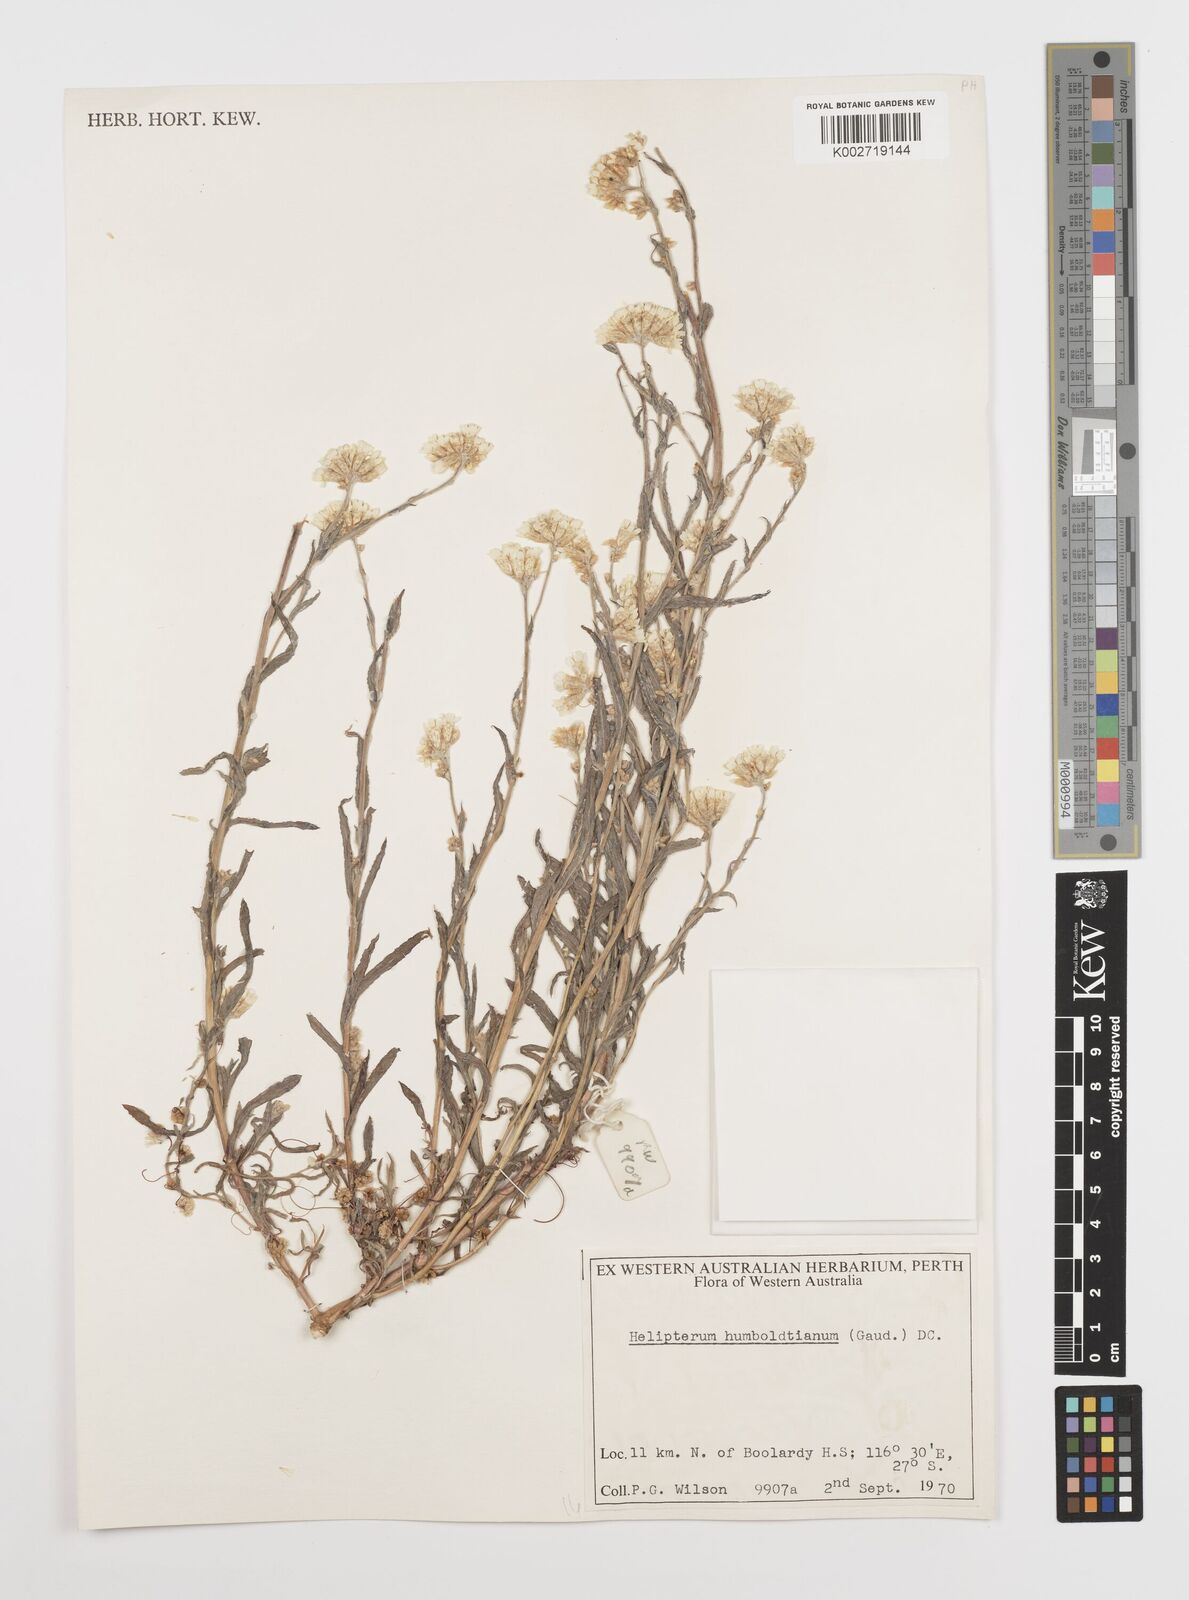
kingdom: Plantae
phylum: Tracheophyta
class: Magnoliopsida
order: Asterales
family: Asteraceae
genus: Rhodanthe
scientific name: Rhodanthe humboldtiana
